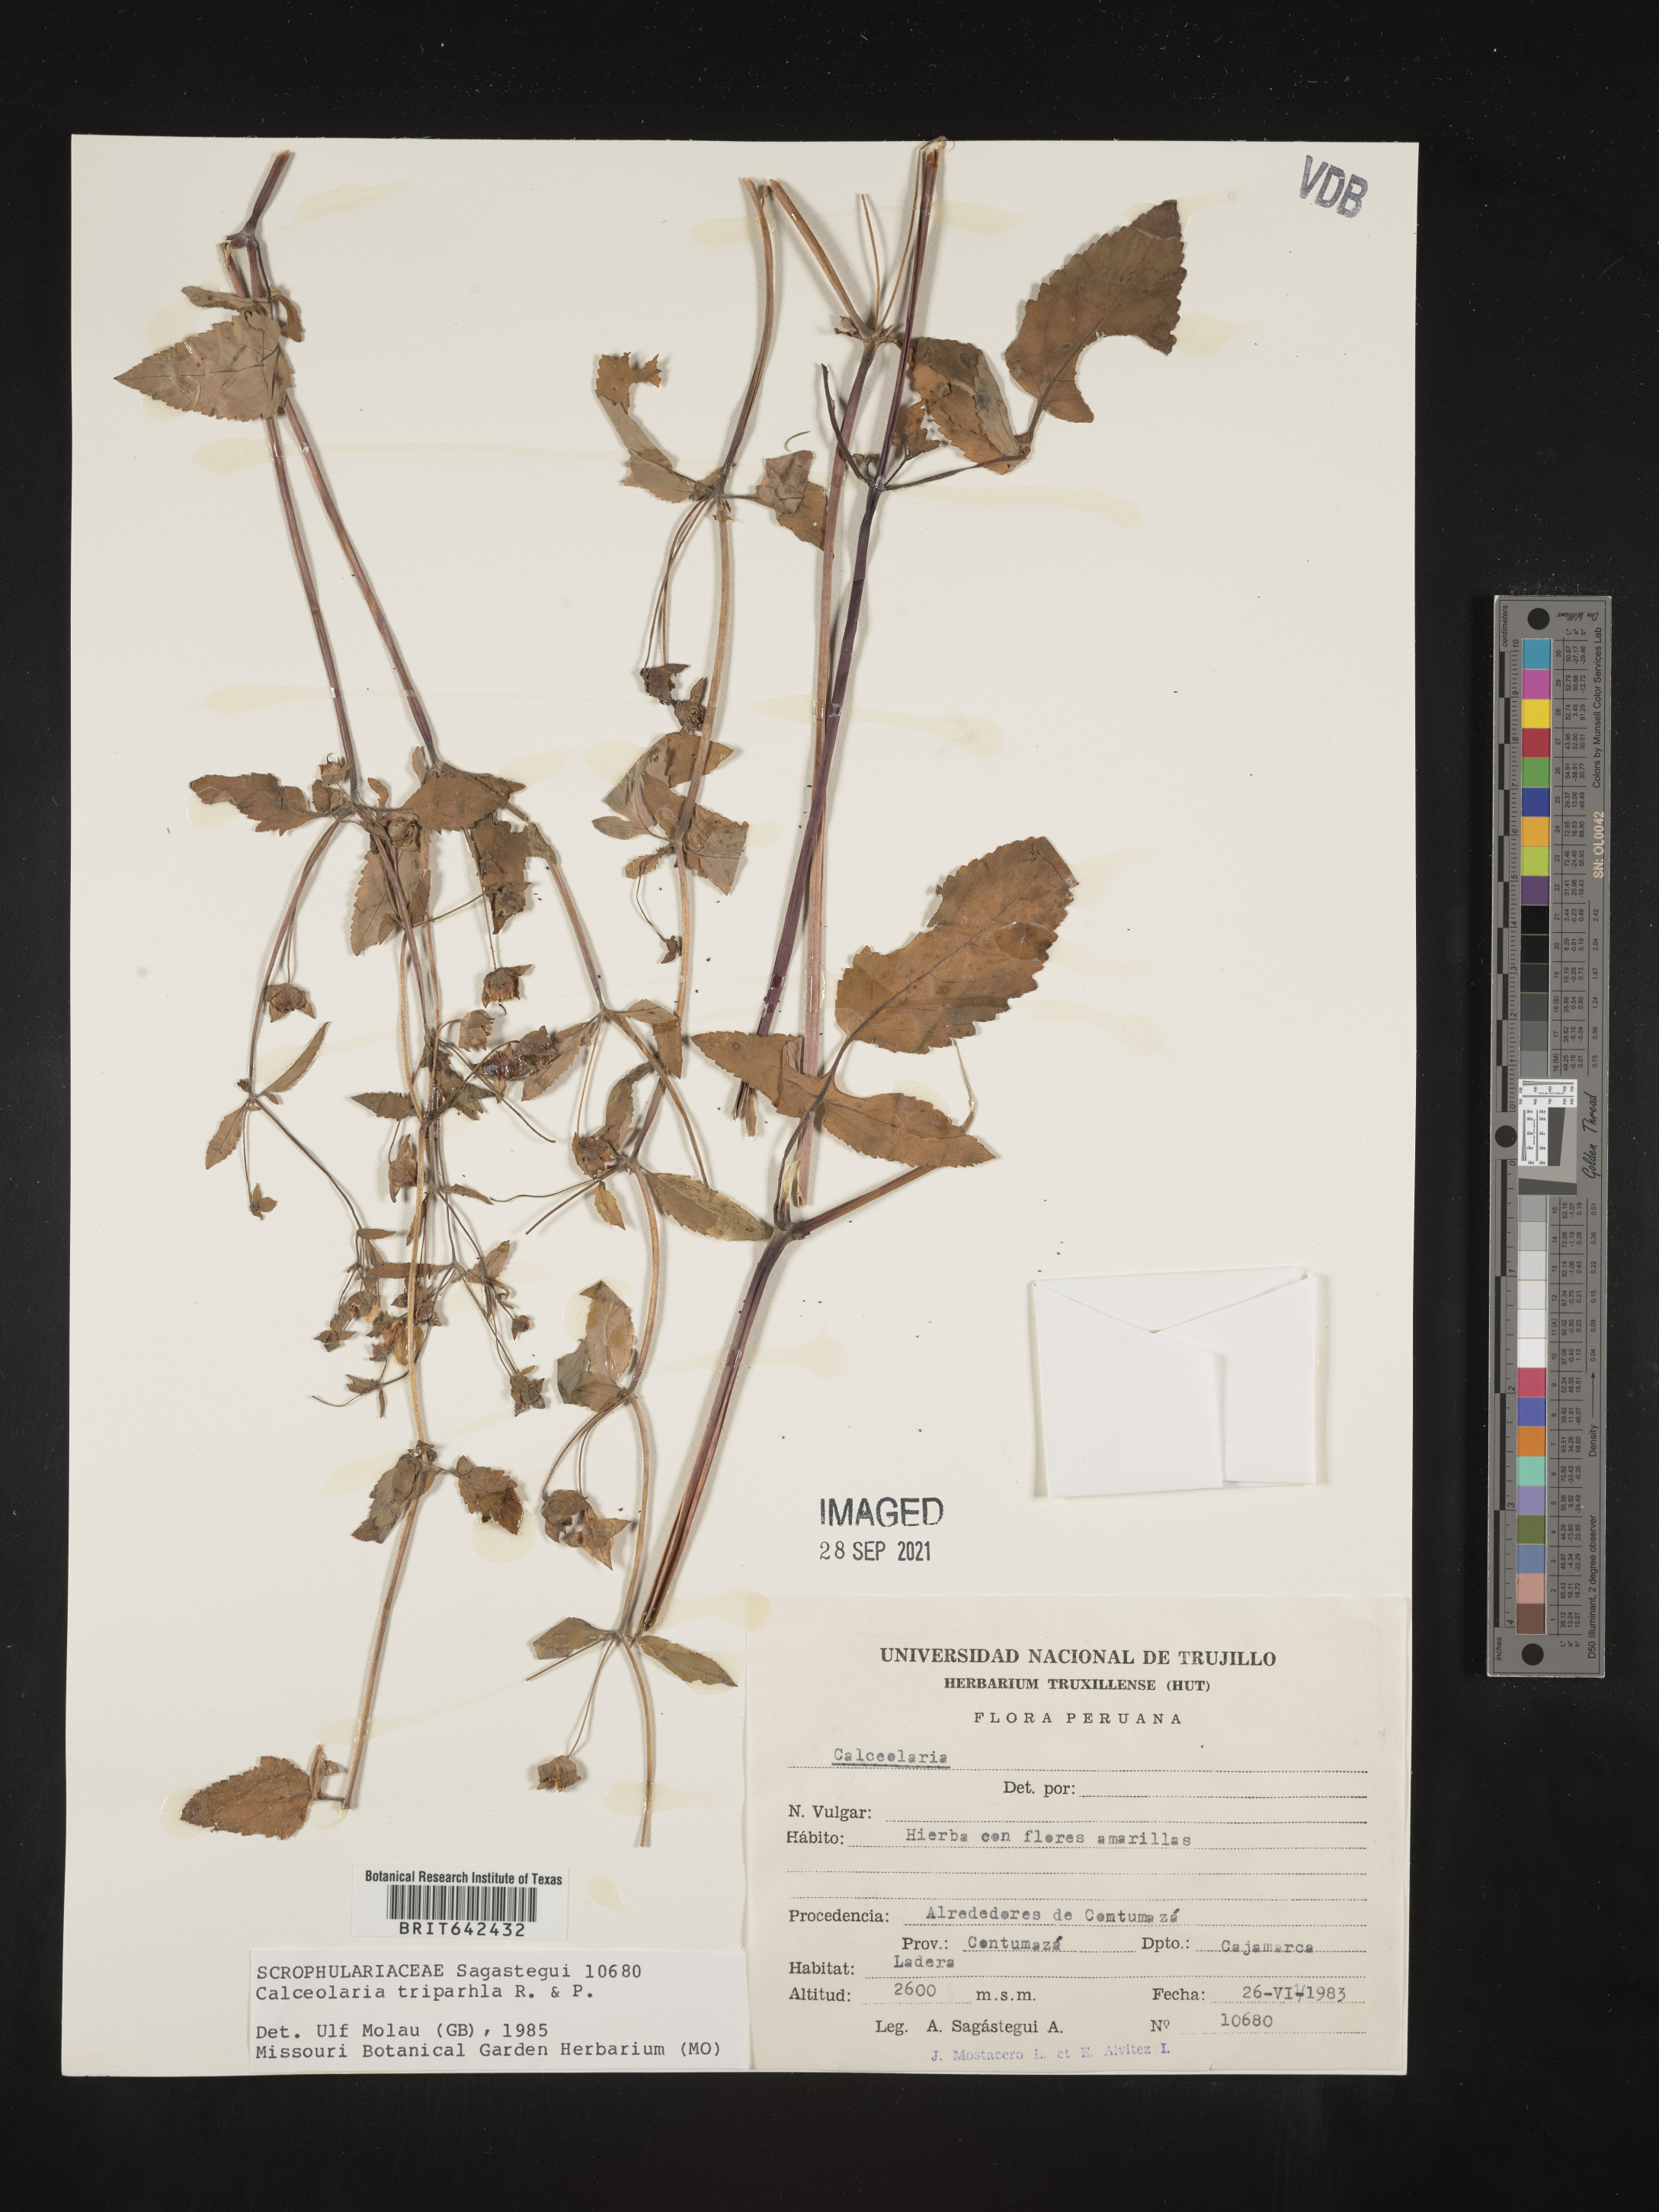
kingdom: Plantae
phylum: Tracheophyta
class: Magnoliopsida
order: Lamiales
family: Calceolariaceae
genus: Calceolaria
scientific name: Calceolaria tripartita
